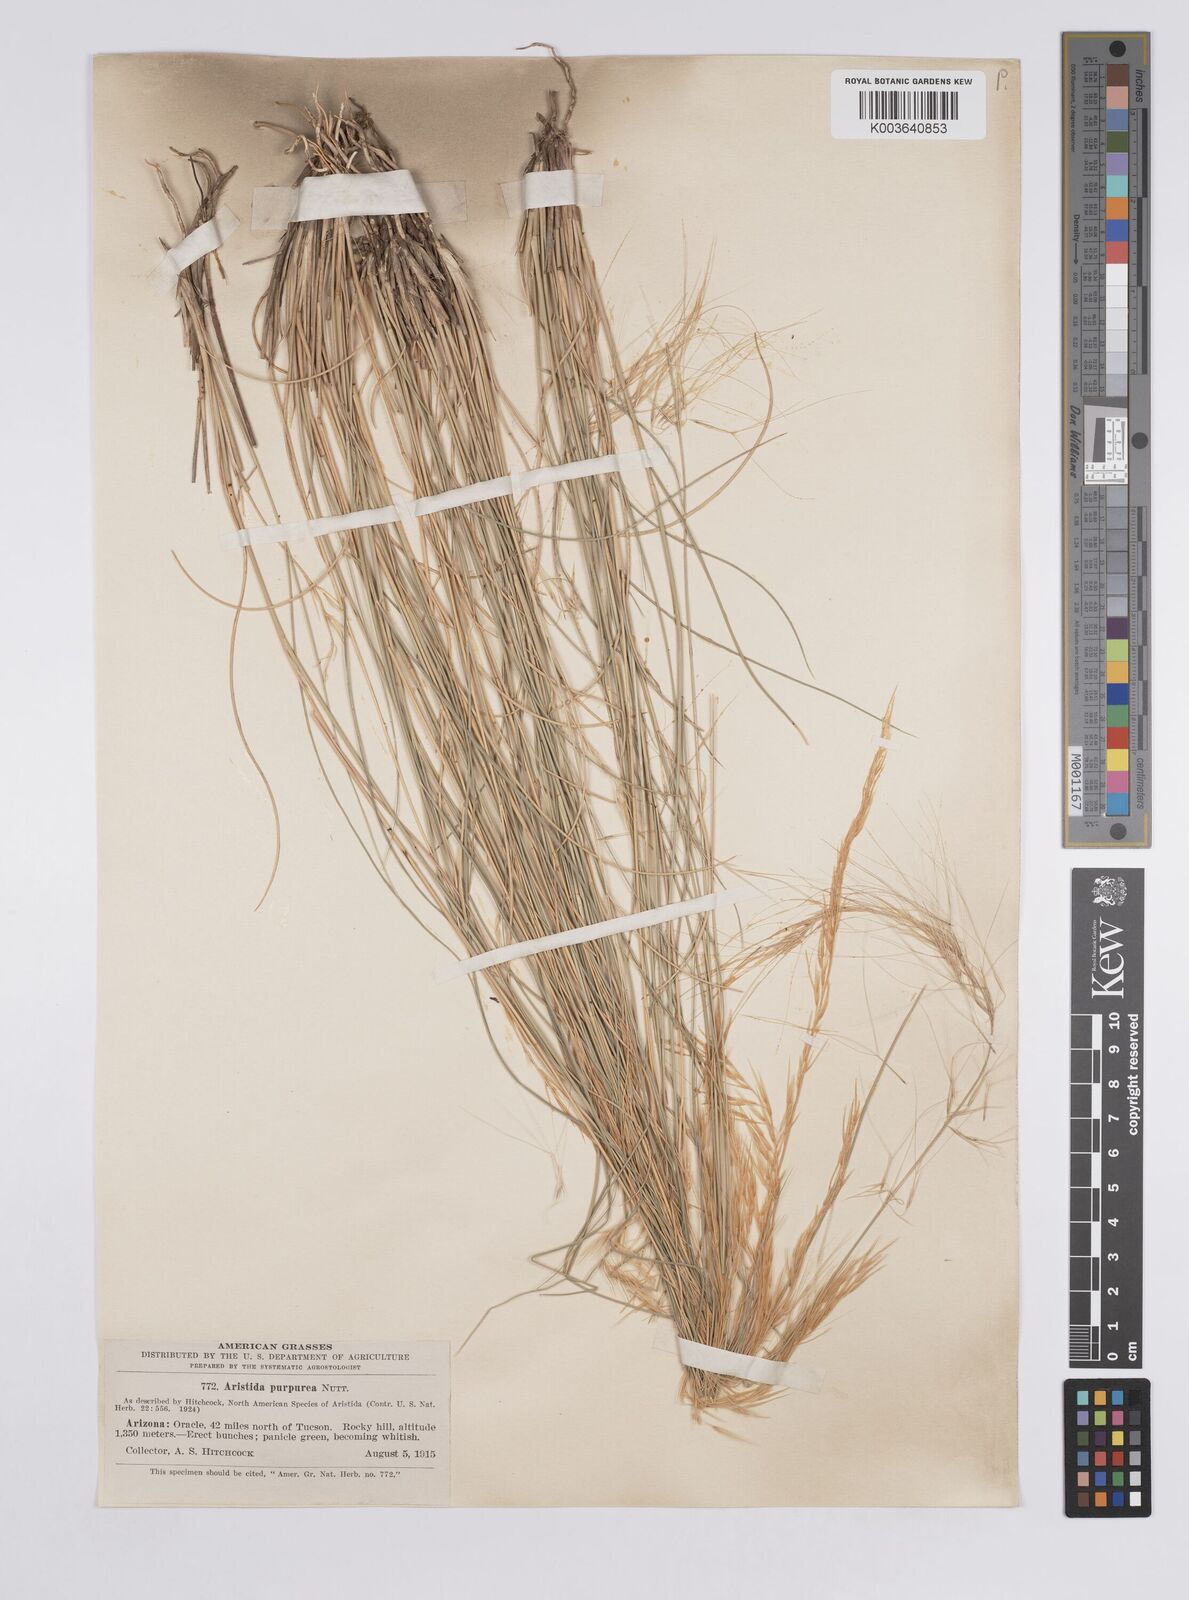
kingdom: Plantae
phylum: Tracheophyta
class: Liliopsida
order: Poales
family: Poaceae
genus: Aristida
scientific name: Aristida purpurea
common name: Purple threeawn
